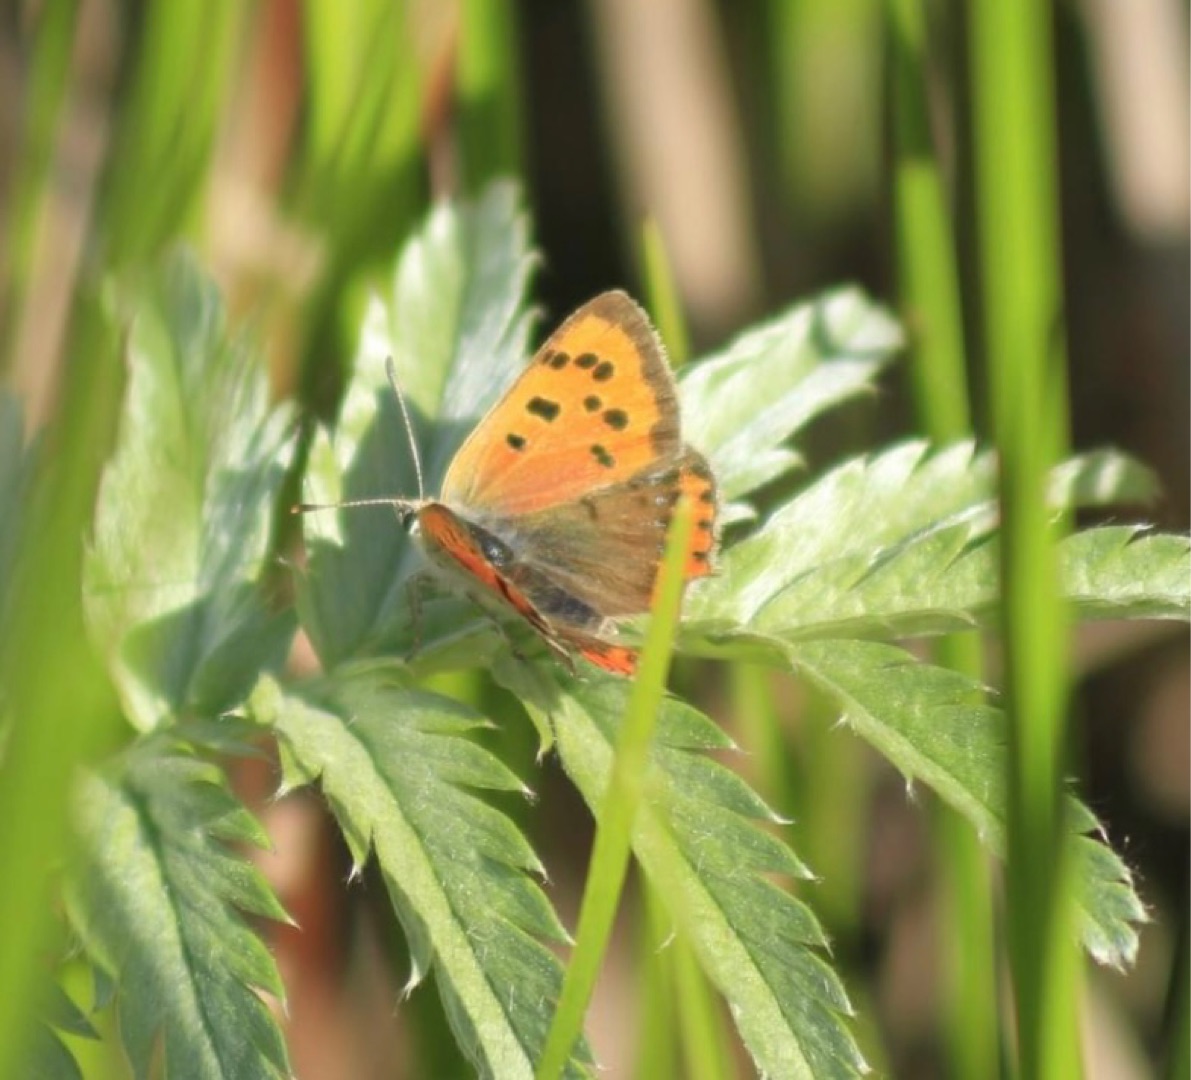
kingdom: Animalia
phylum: Arthropoda
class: Insecta
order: Lepidoptera
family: Lycaenidae
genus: Lycaena
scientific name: Lycaena phlaeas
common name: Lille ildfugl
